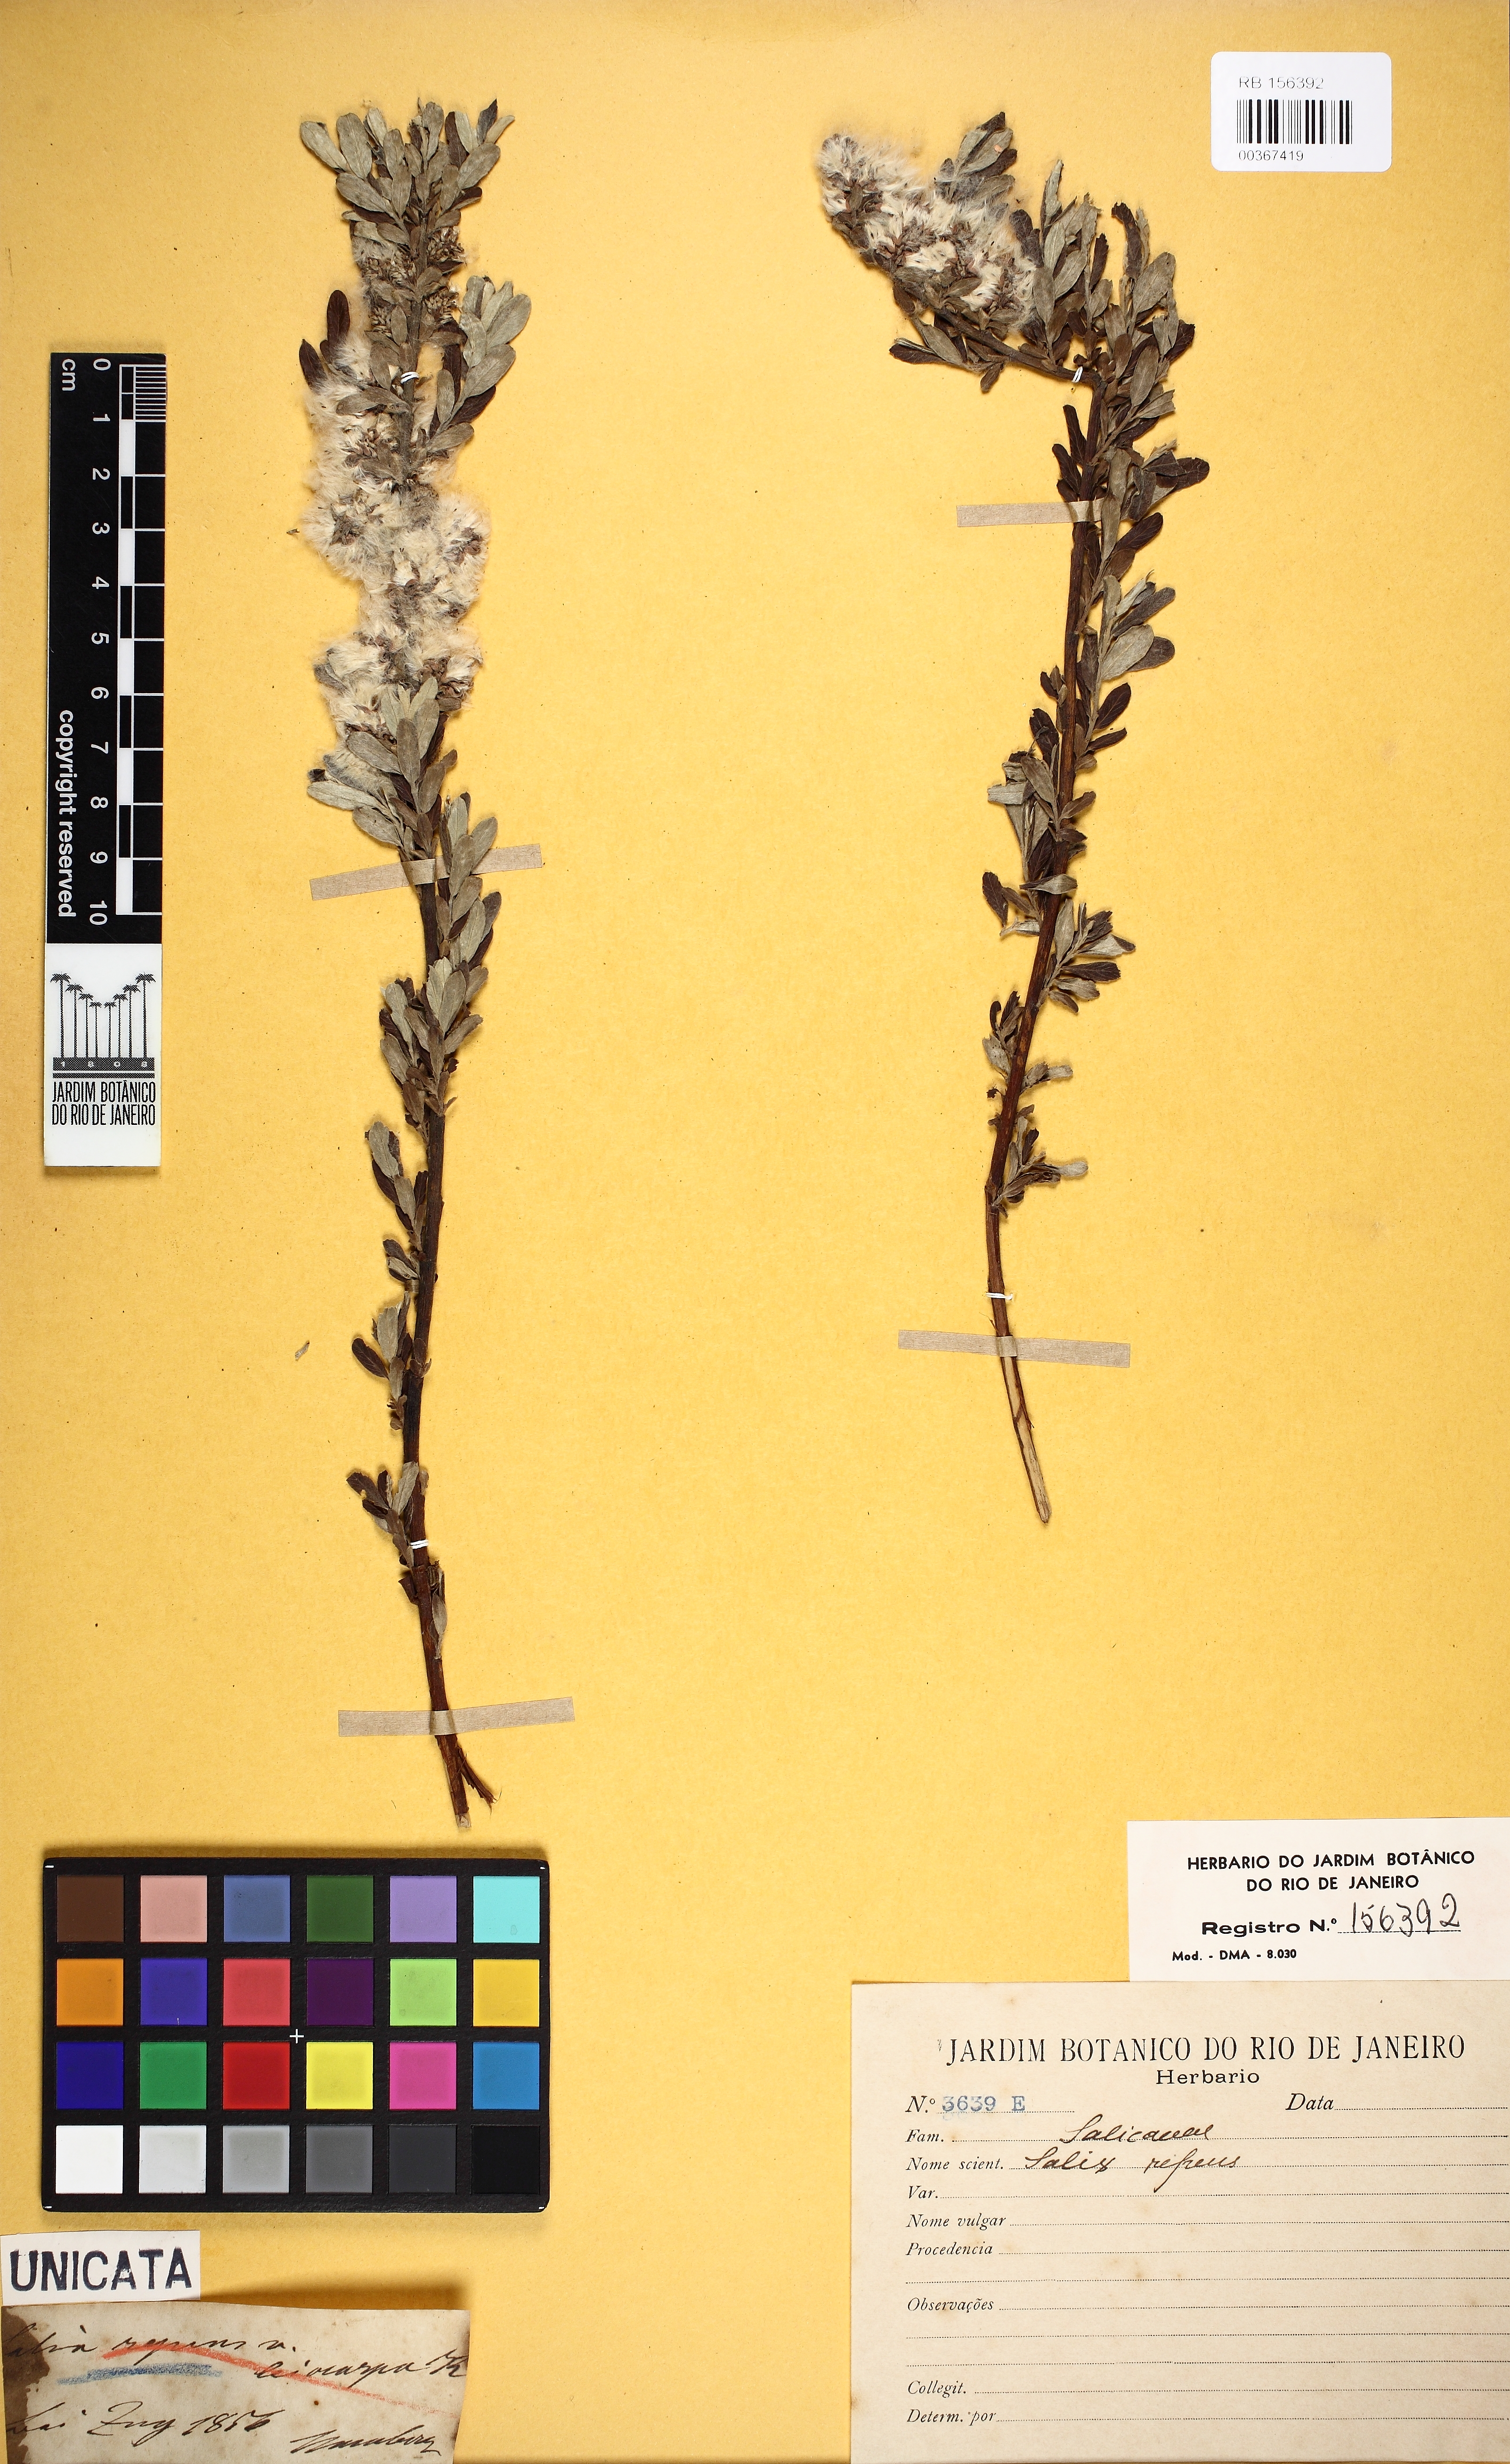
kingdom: Plantae
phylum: Tracheophyta
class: Magnoliopsida
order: Malpighiales
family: Salicaceae
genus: Salix
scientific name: Salix repens
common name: Creeping willow
